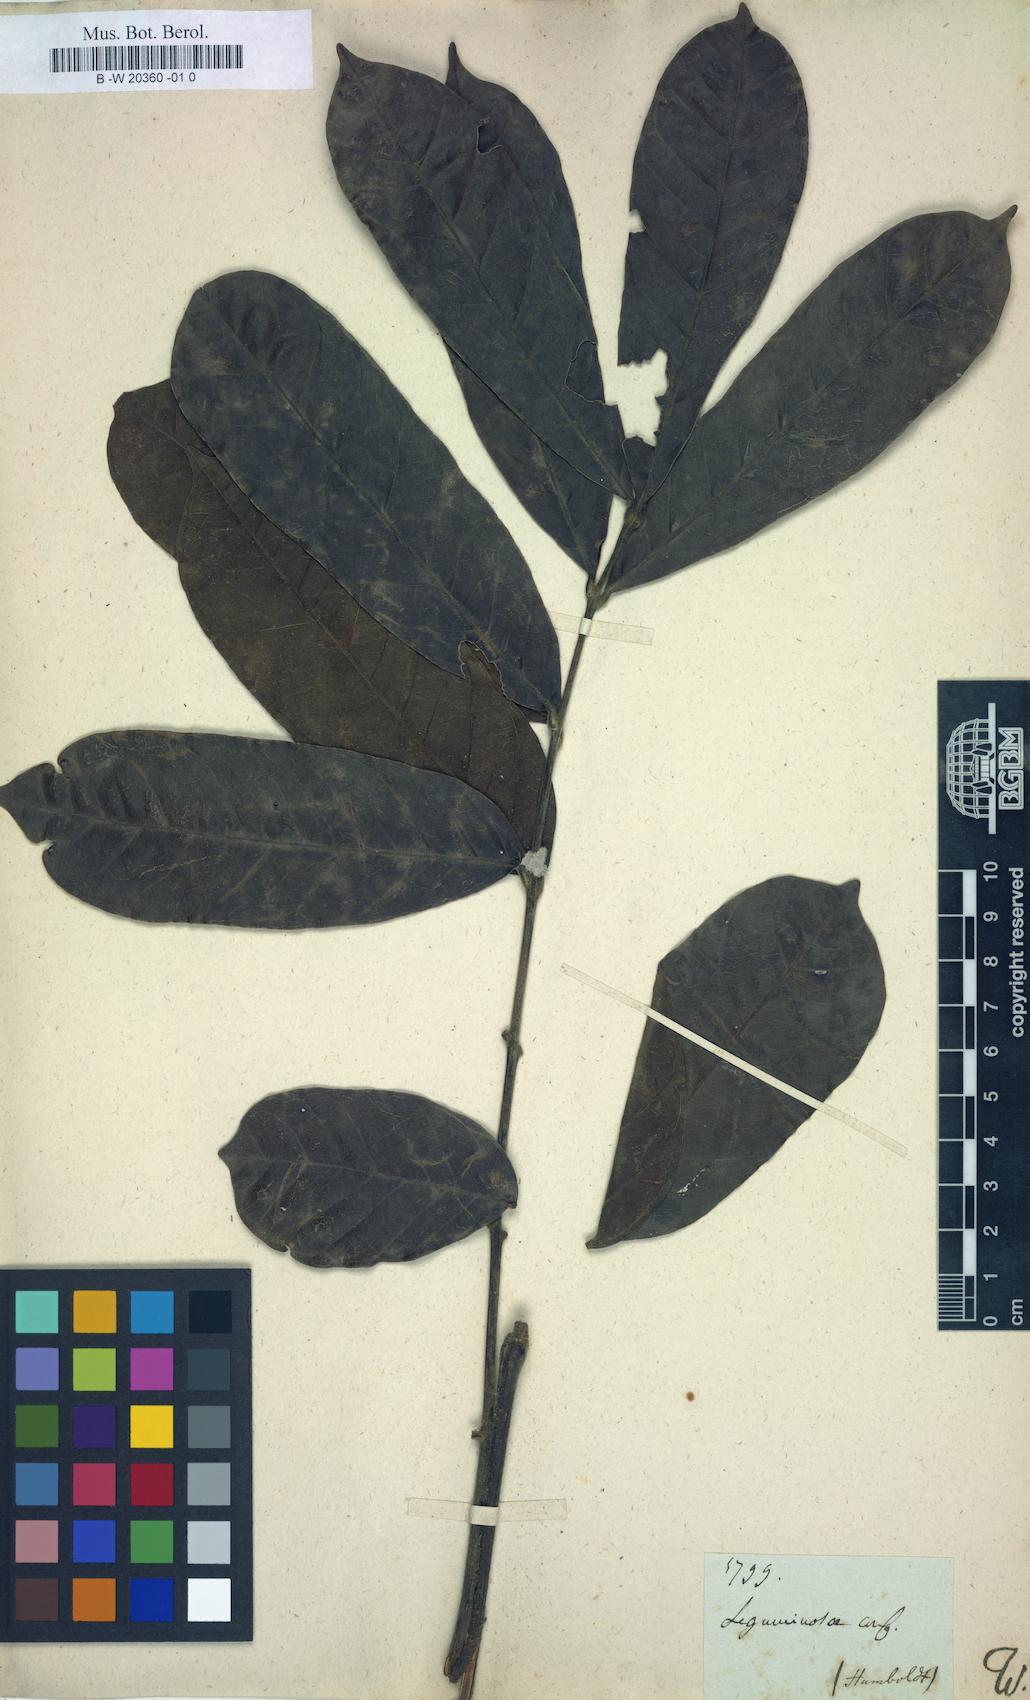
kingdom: Plantae
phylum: Tracheophyta
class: Magnoliopsida
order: Fabales
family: Fabaceae
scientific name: Fabaceae
